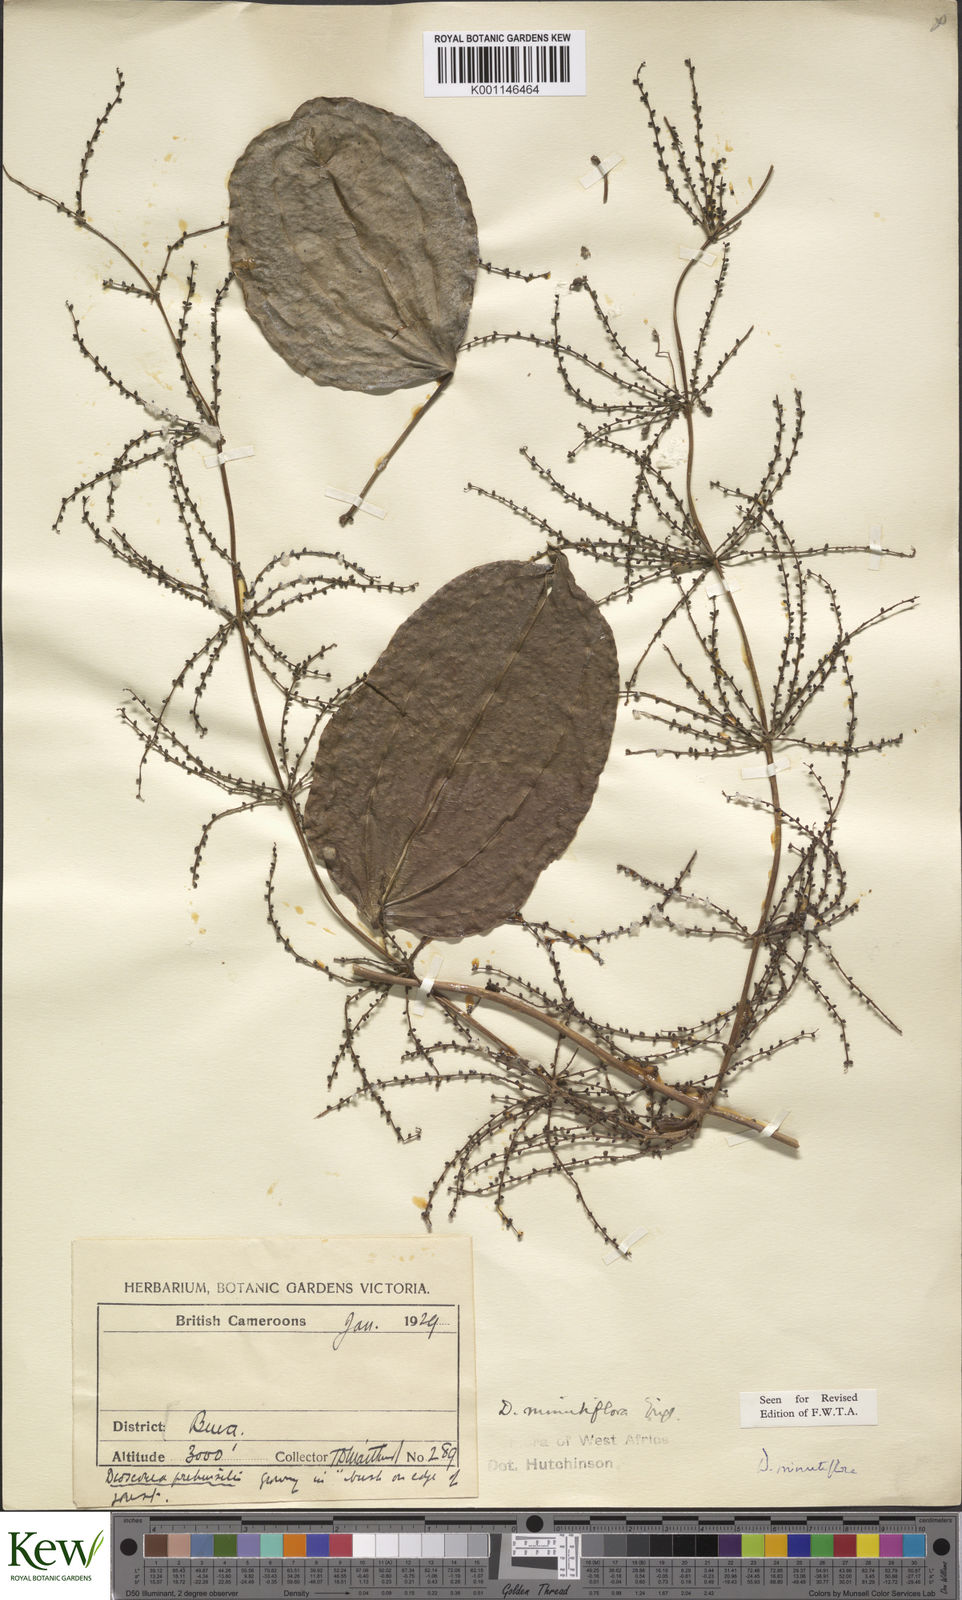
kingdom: Plantae
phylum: Tracheophyta
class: Liliopsida
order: Dioscoreales
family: Dioscoreaceae
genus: Dioscorea
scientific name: Dioscorea minutiflora
